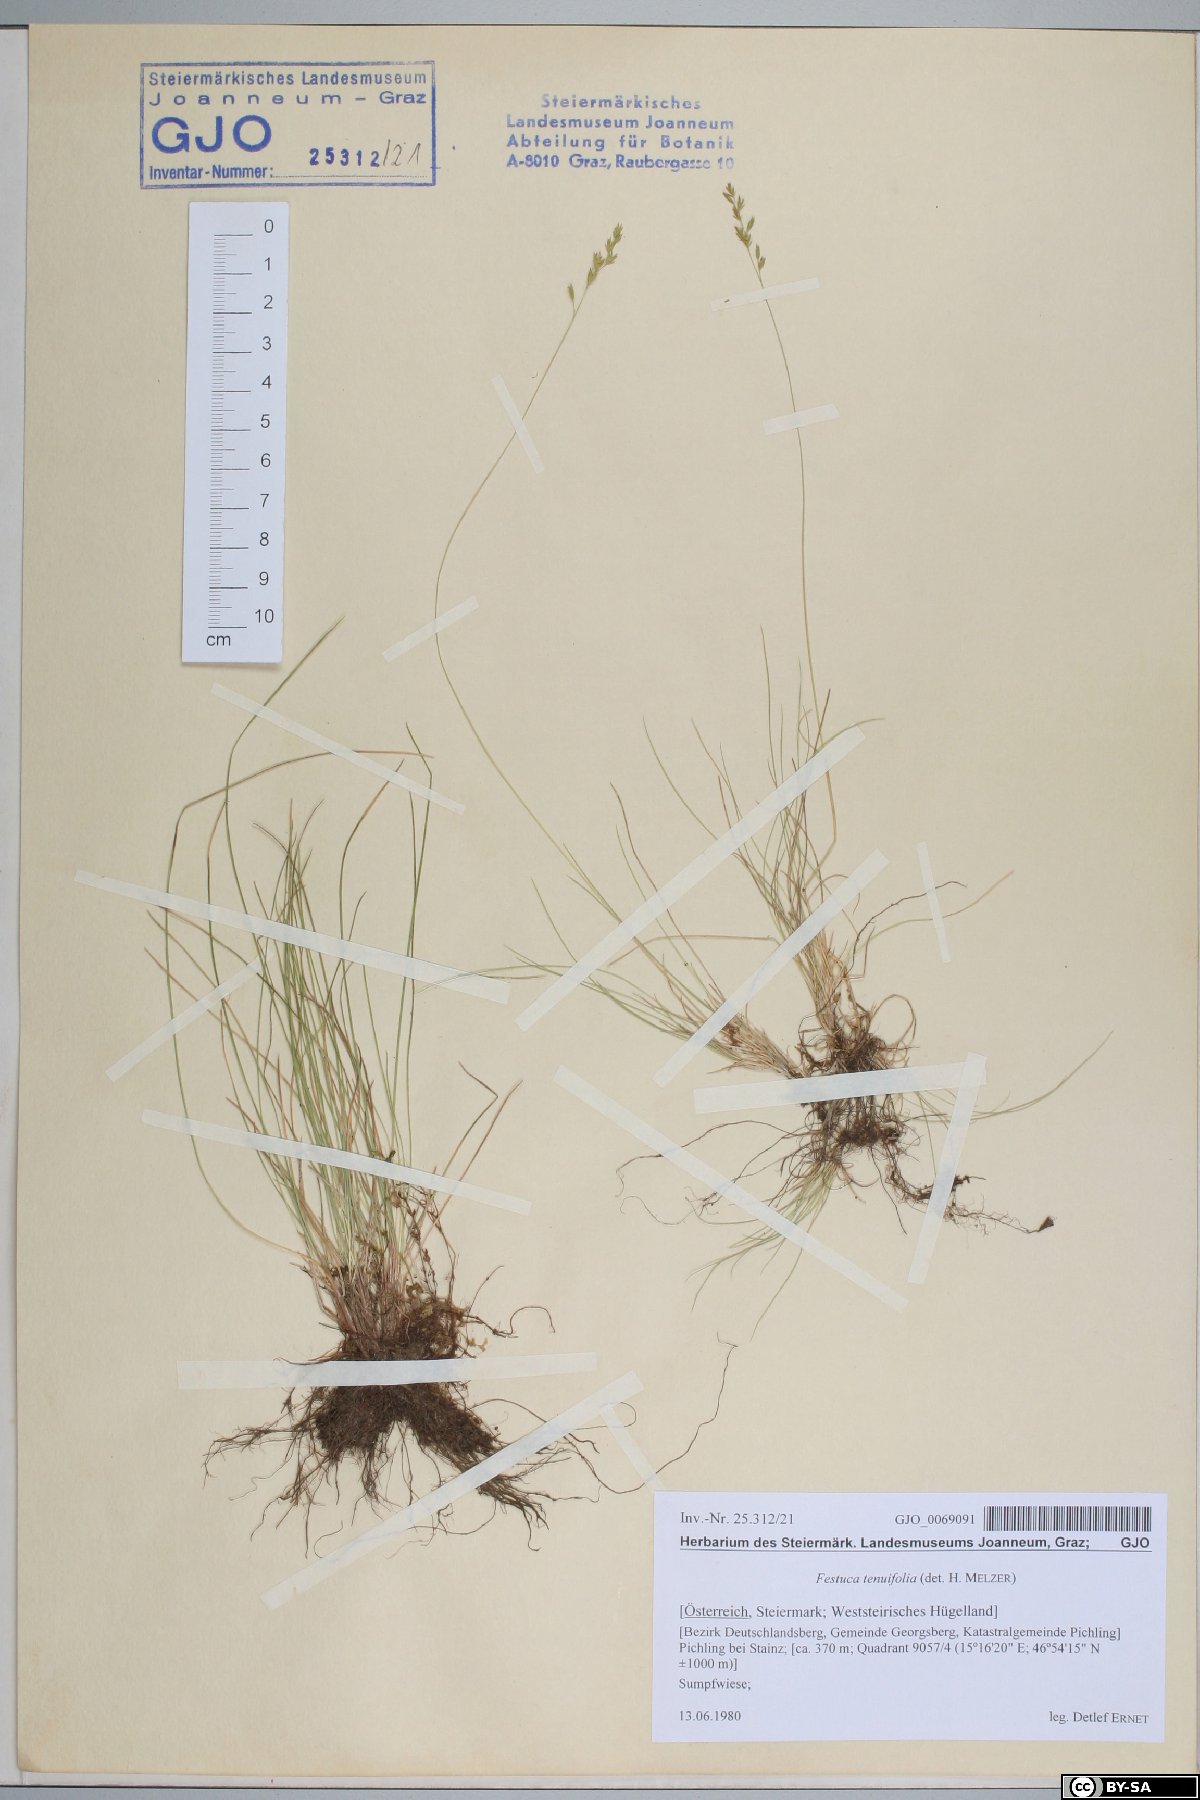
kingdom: Plantae
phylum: Tracheophyta
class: Liliopsida
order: Poales
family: Poaceae
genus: Festuca
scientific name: Festuca filiformis
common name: Fine-leaved sheep's-fescue
